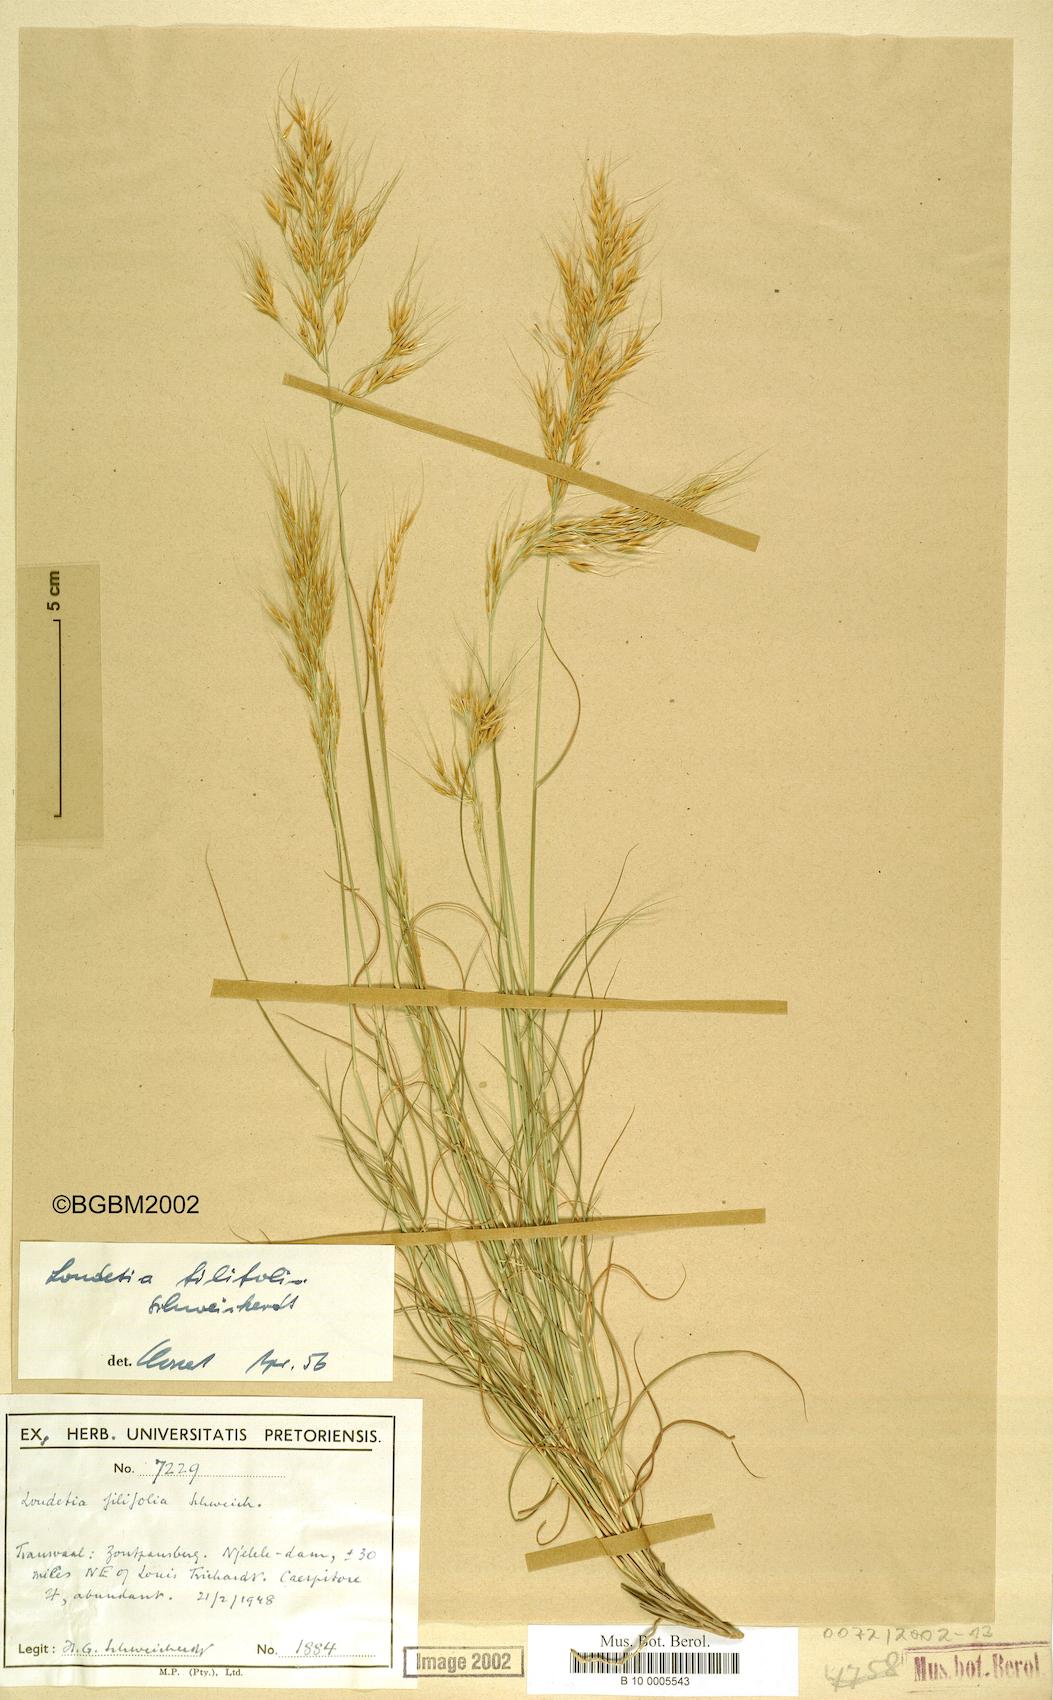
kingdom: Plantae
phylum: Tracheophyta
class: Liliopsida
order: Poales
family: Poaceae
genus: Loudetia
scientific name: Loudetia filifolia
